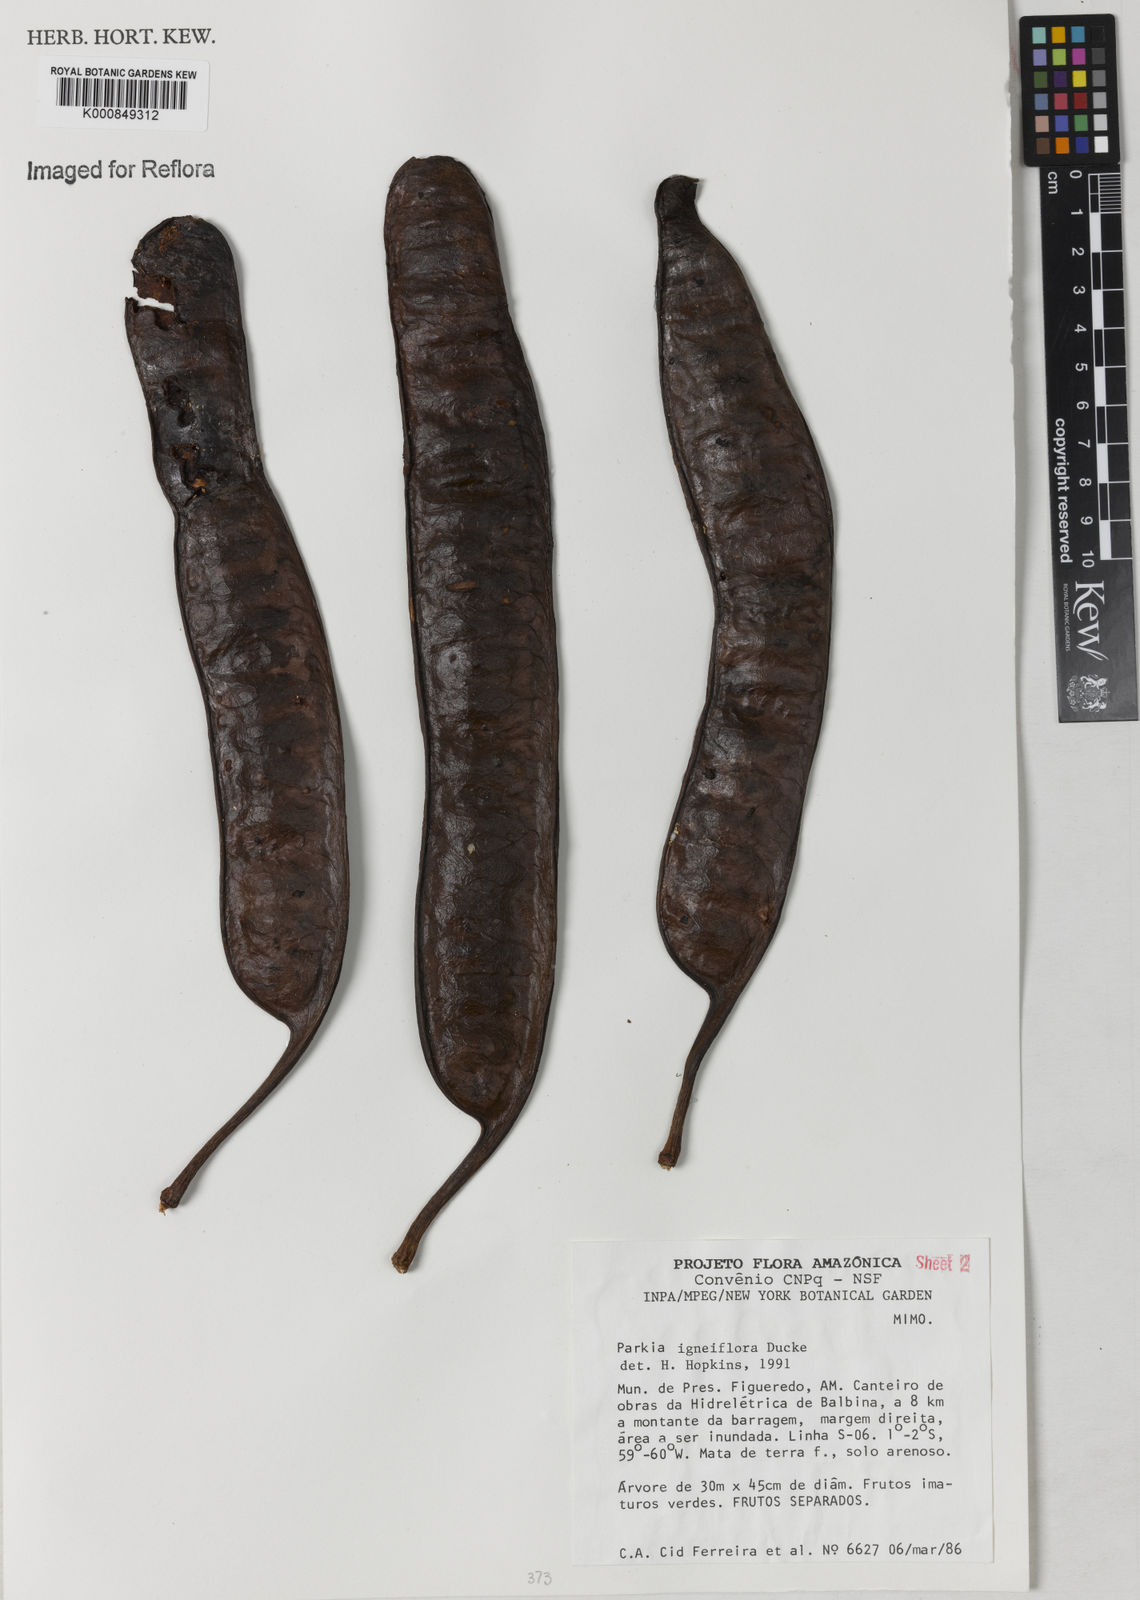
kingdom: Plantae
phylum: Tracheophyta
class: Magnoliopsida
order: Fabales
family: Fabaceae
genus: Parkia
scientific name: Parkia igneiflora
